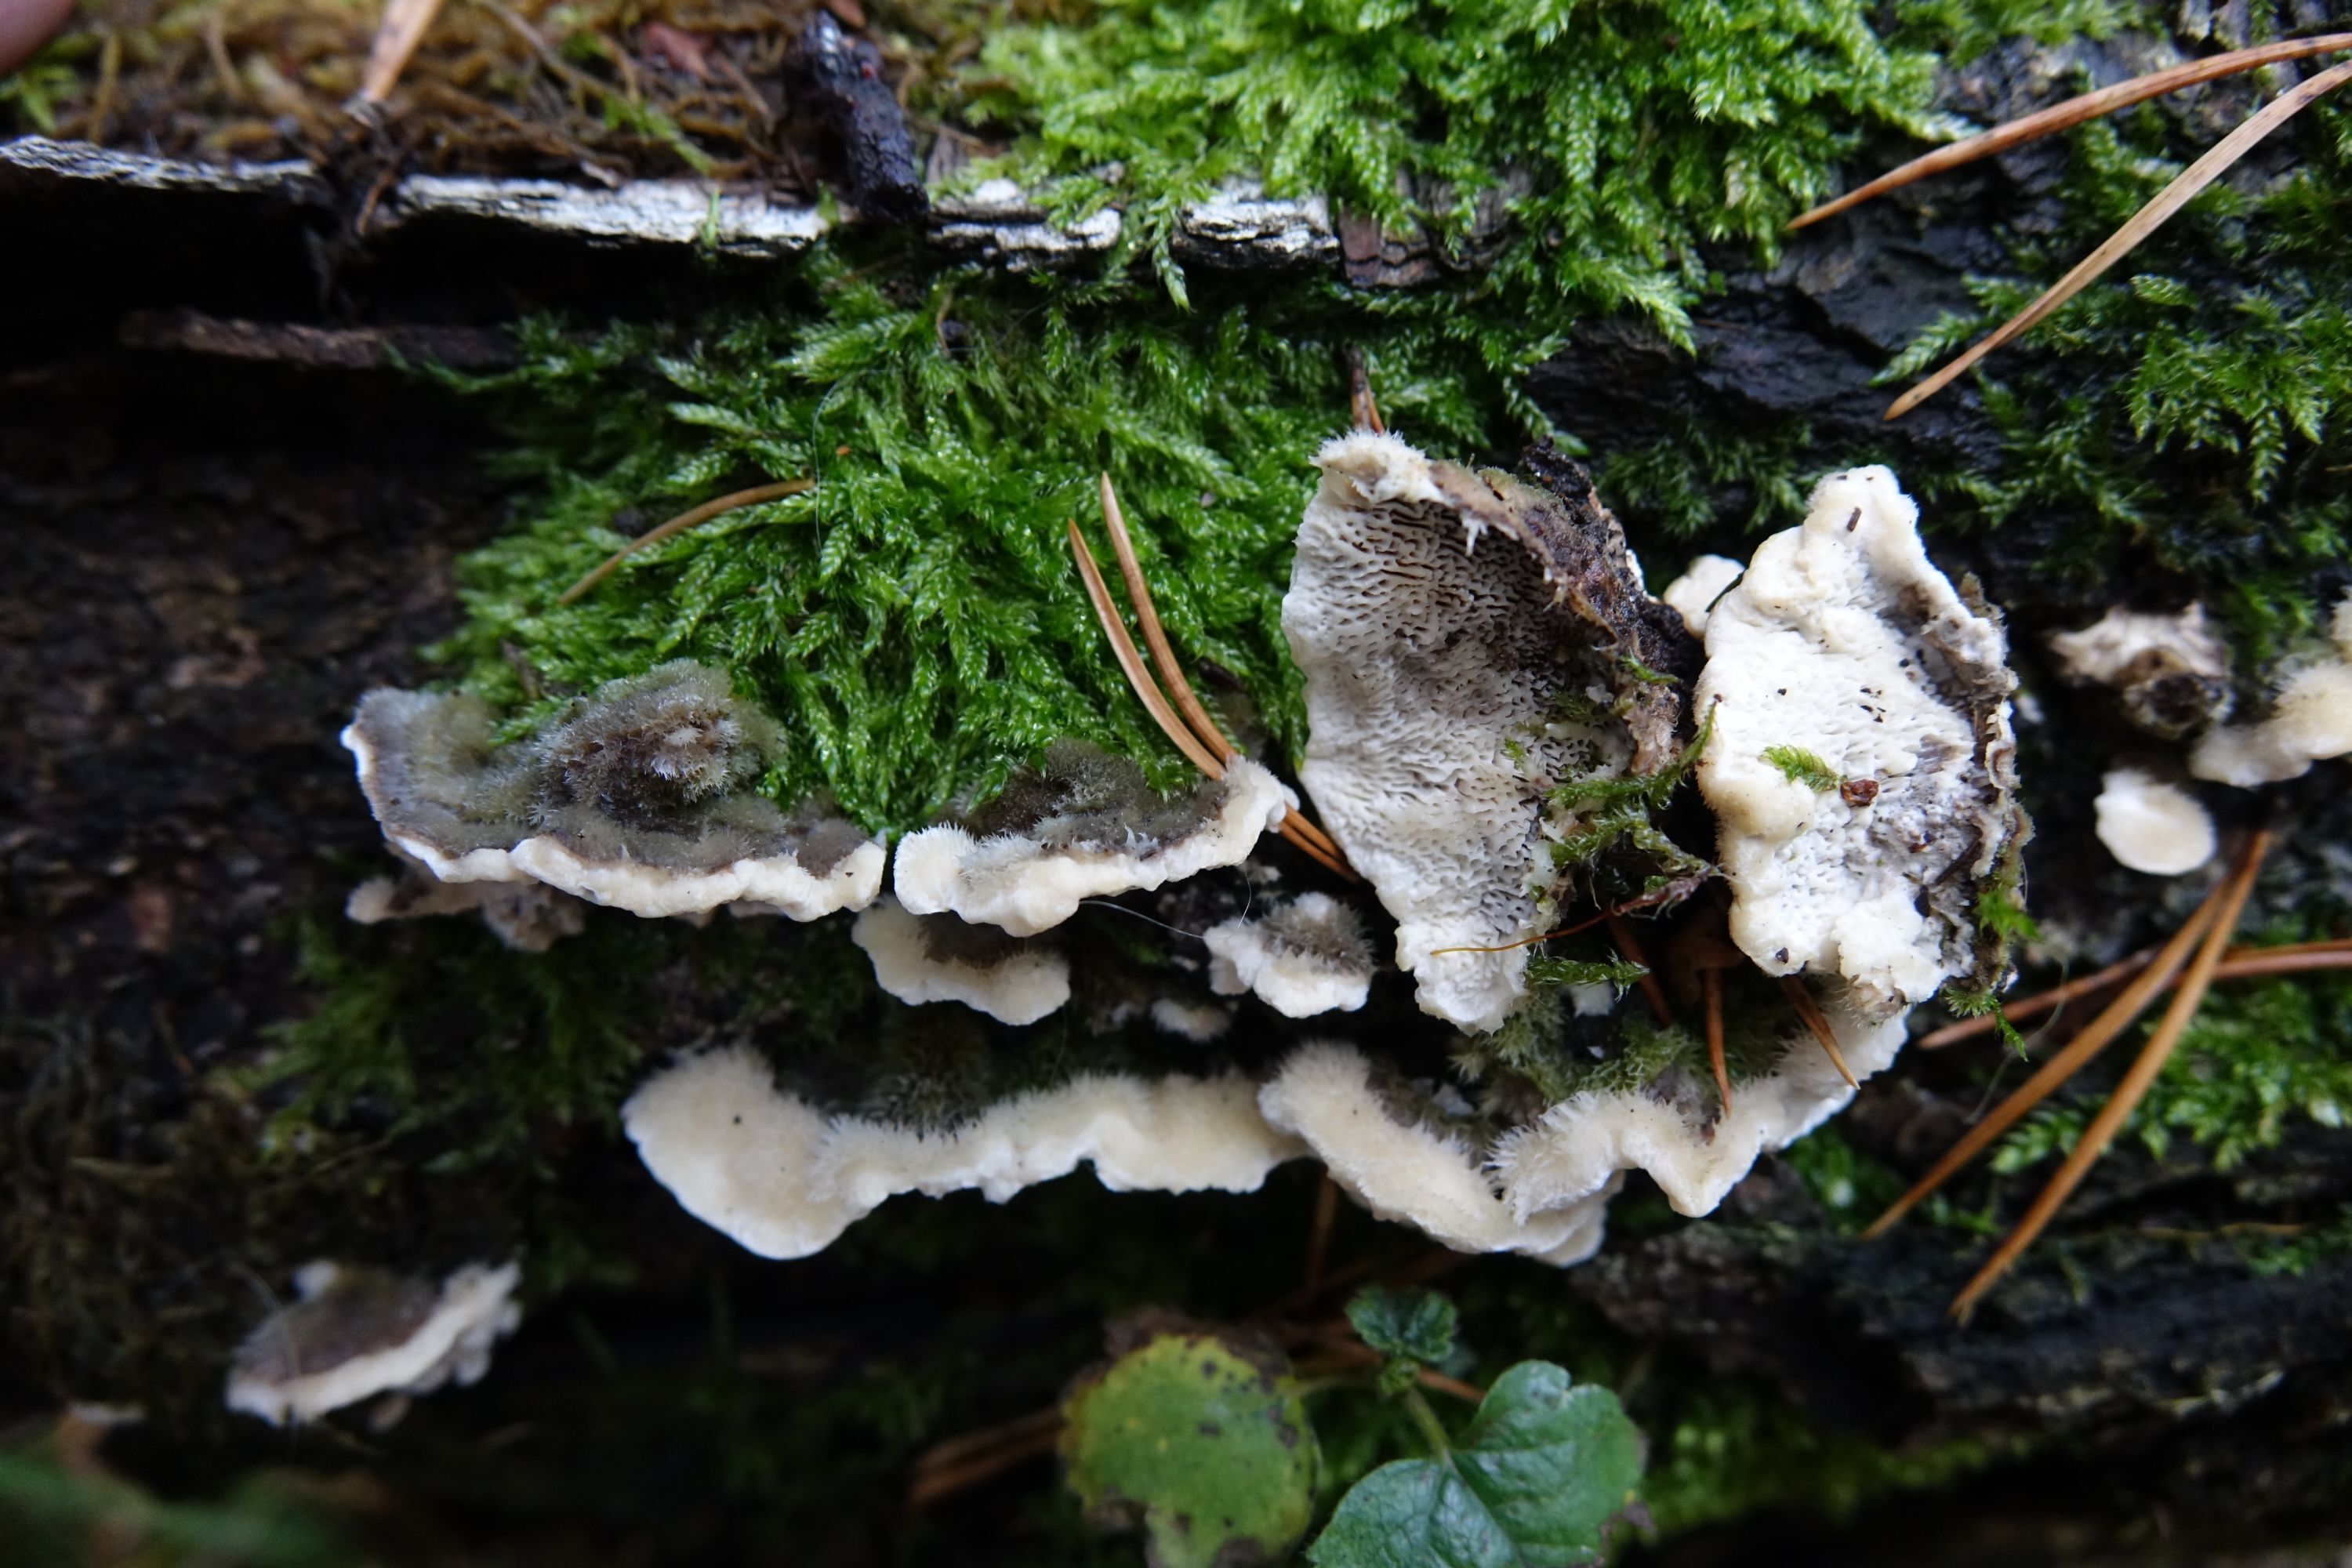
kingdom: Fungi
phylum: Basidiomycota
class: Agaricomycetes
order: Polyporales
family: Cerrenaceae
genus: Cerrena
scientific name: Cerrena unicolor
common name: Mossy maze polypore
